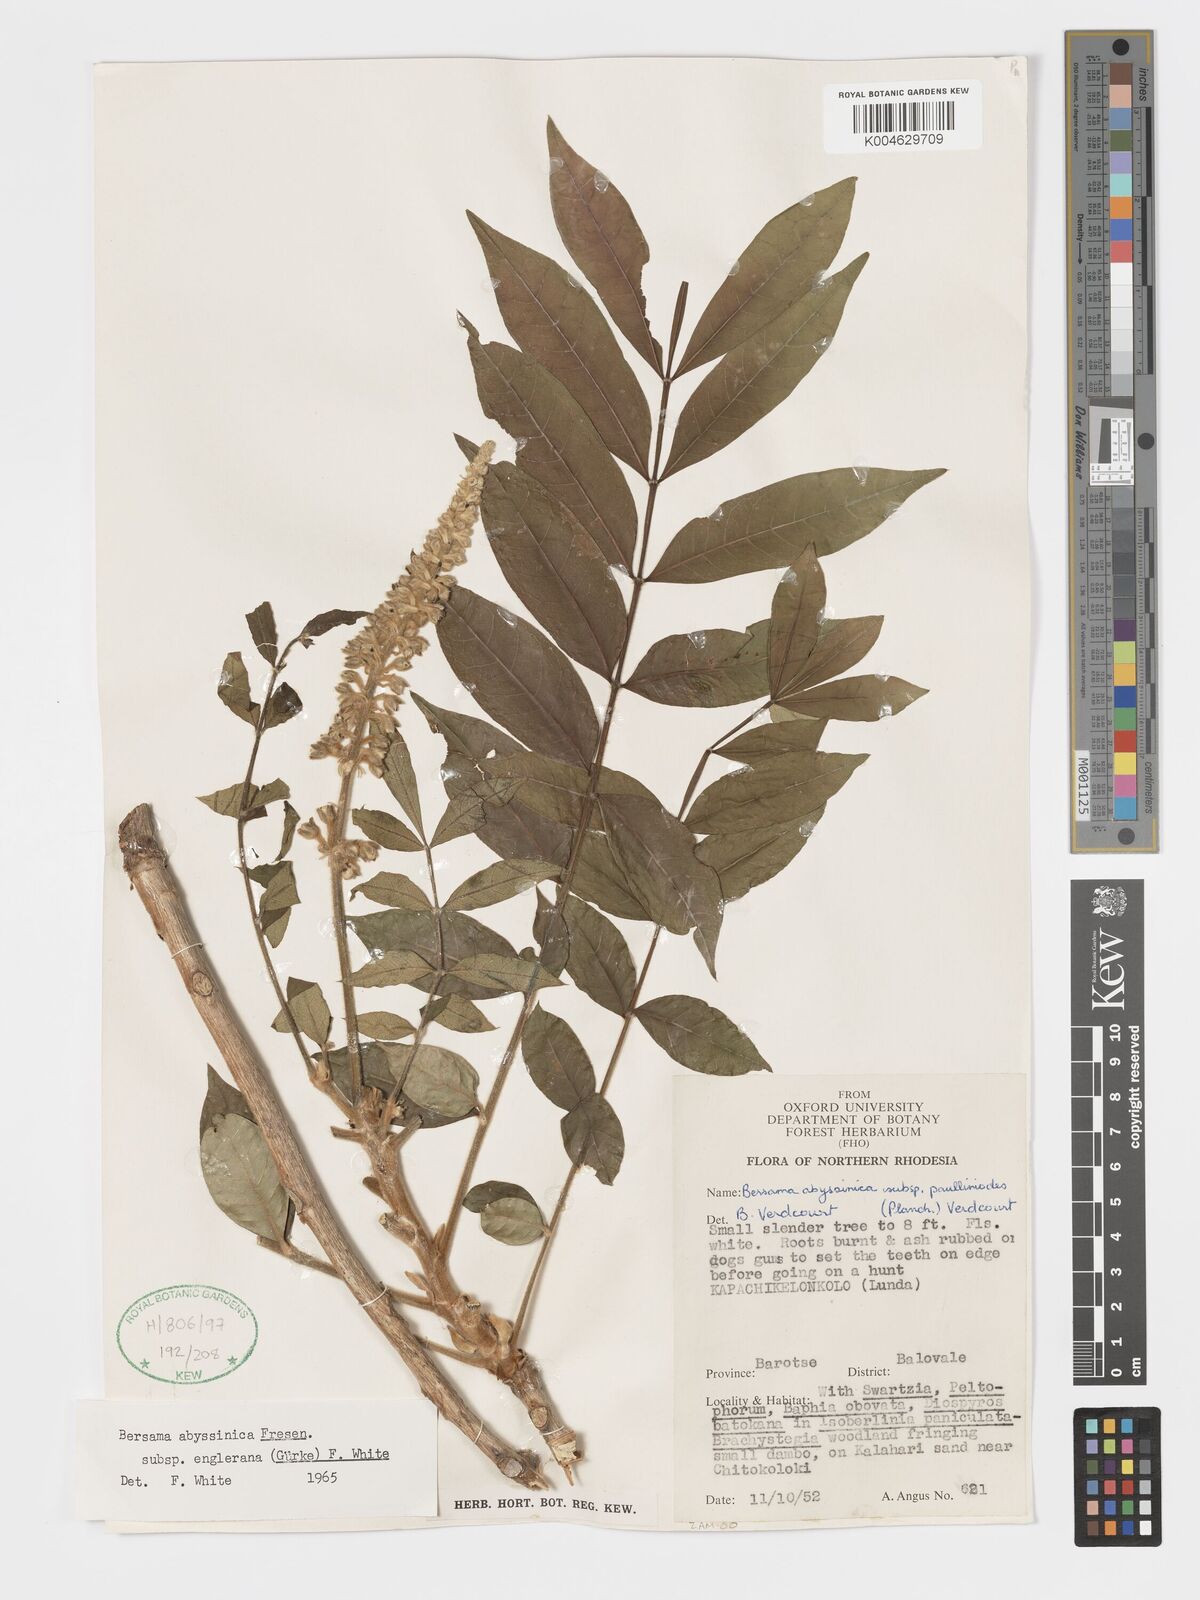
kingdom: Plantae
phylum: Tracheophyta
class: Magnoliopsida
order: Geraniales
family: Melianthaceae
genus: Bersama
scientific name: Bersama abyssinica
